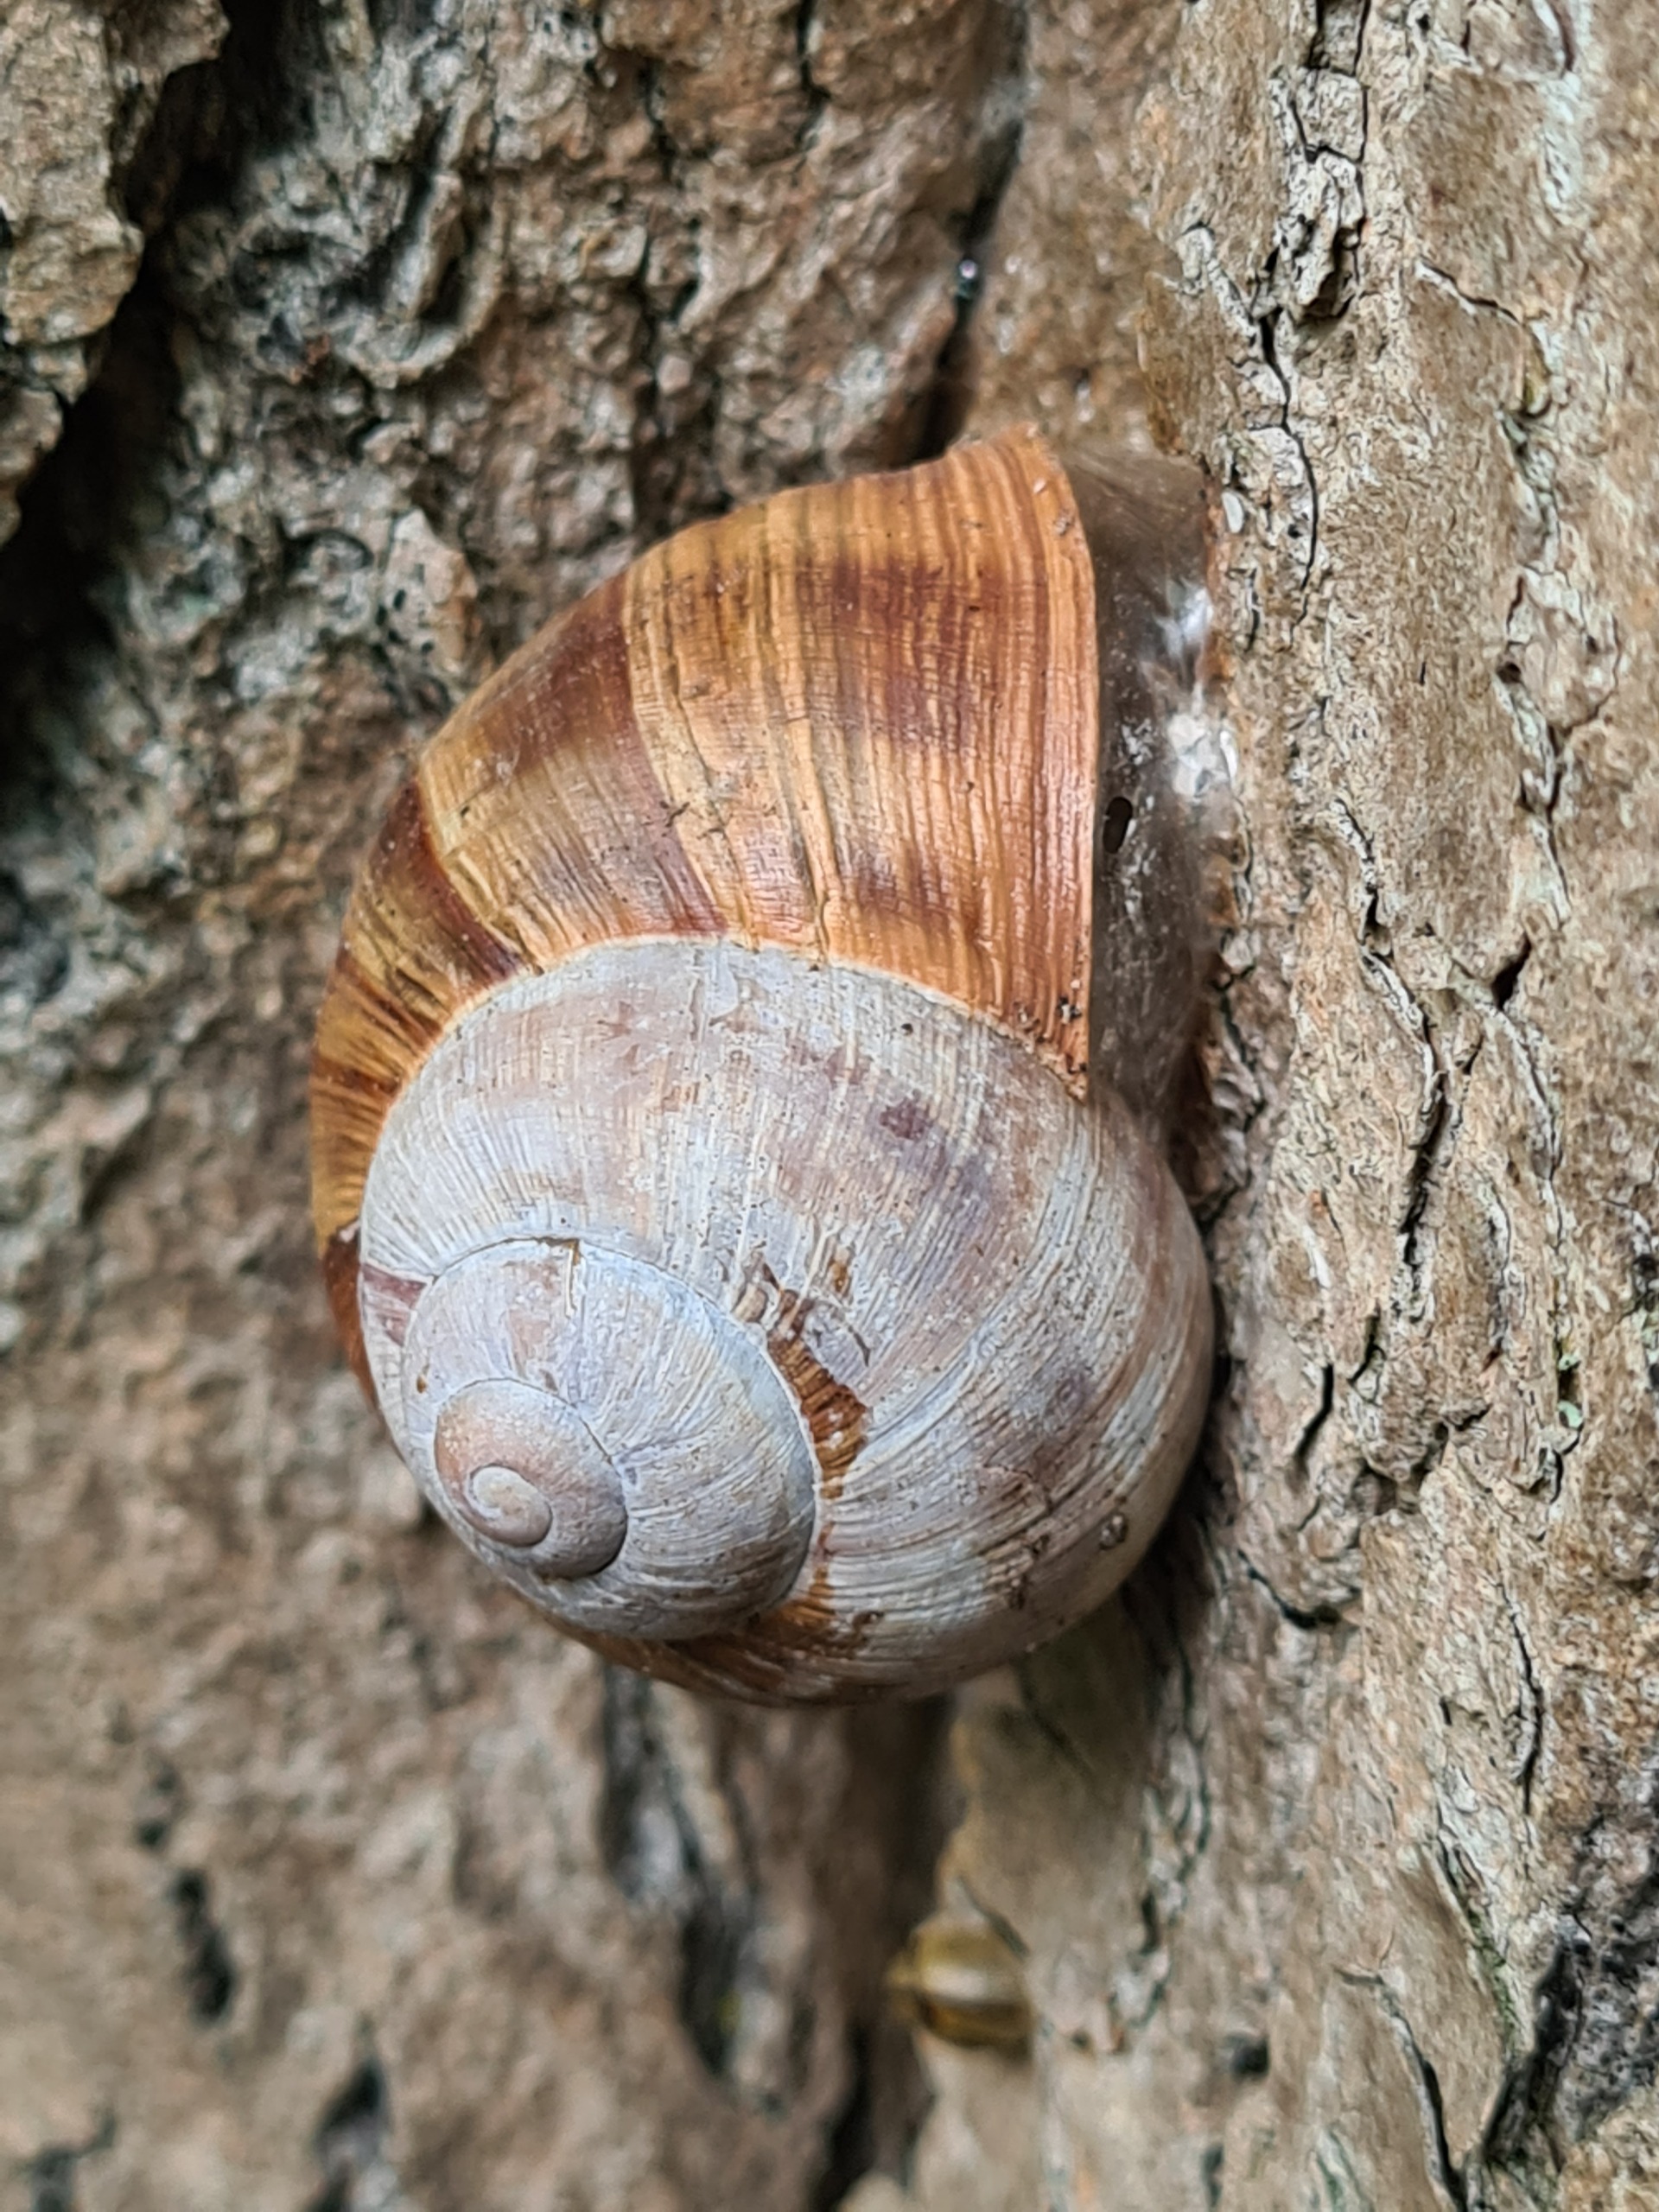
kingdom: Animalia
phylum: Mollusca
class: Gastropoda
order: Stylommatophora
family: Helicidae
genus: Helix
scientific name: Helix pomatia
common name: Vinbjergsnegl
